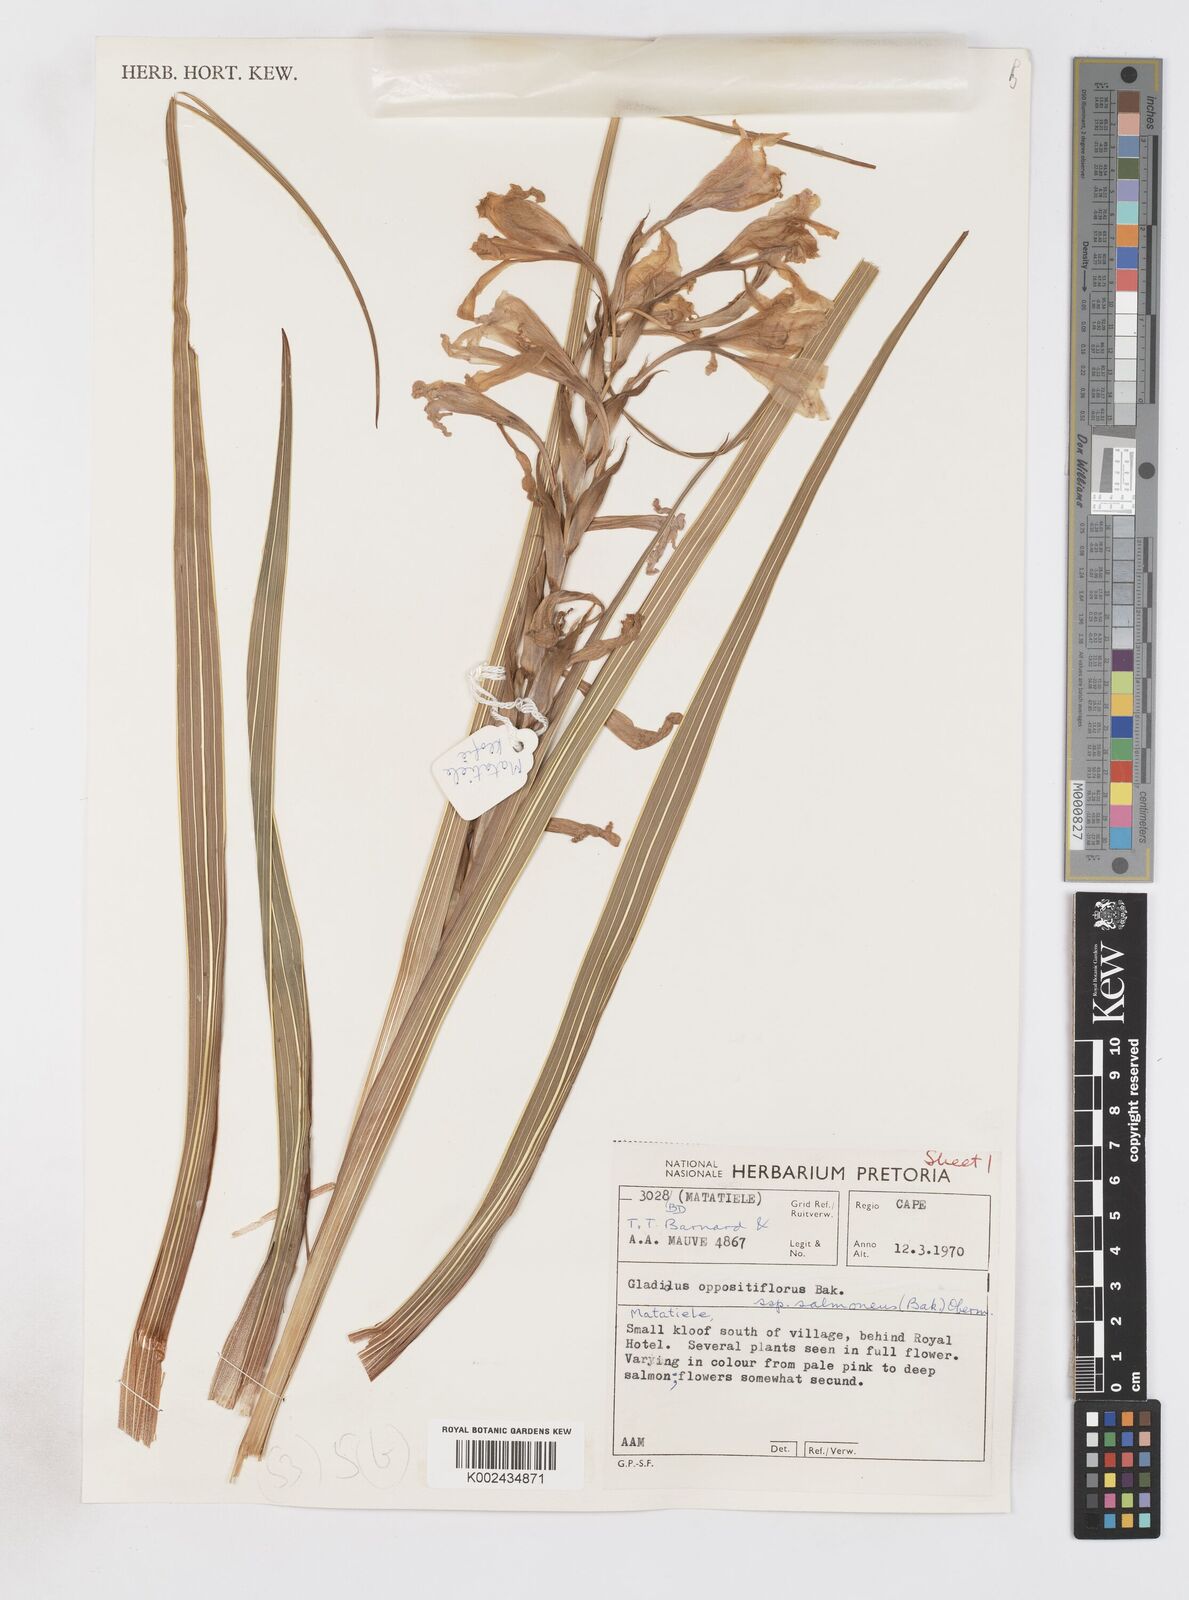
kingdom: Plantae
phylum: Tracheophyta
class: Liliopsida
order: Asparagales
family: Iridaceae
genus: Gladiolus
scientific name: Gladiolus oppositiflorus
